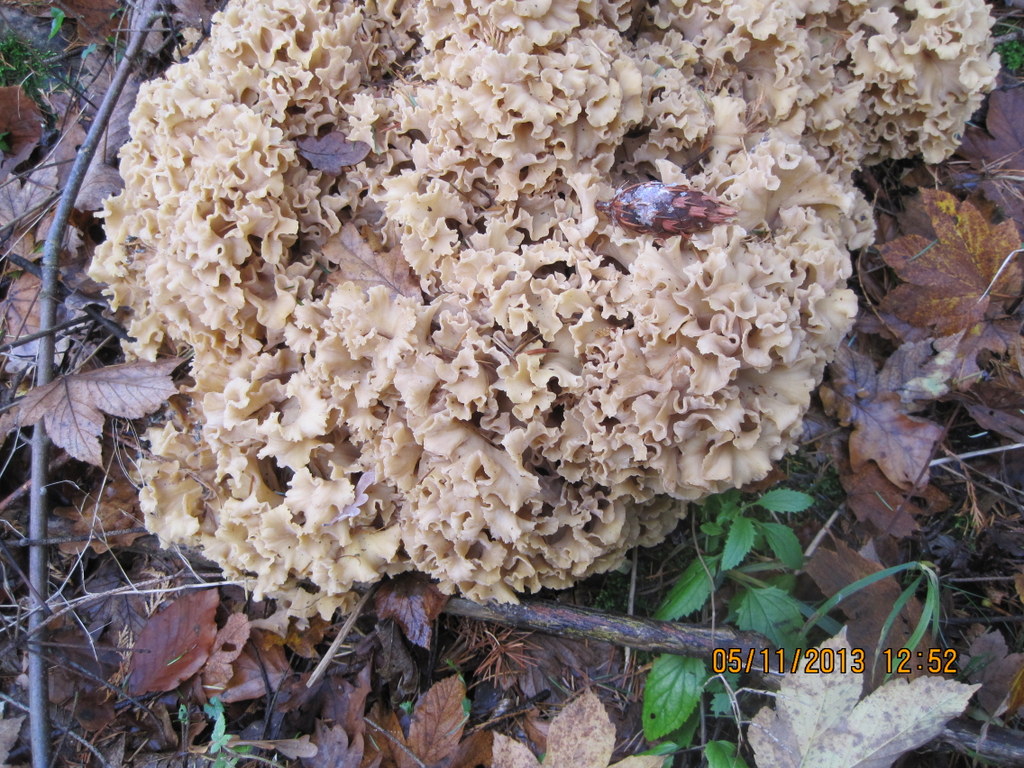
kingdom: Fungi
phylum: Basidiomycota
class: Agaricomycetes
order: Polyporales
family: Sparassidaceae
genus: Sparassis
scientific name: Sparassis crispa
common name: kruset blomkålssvamp
